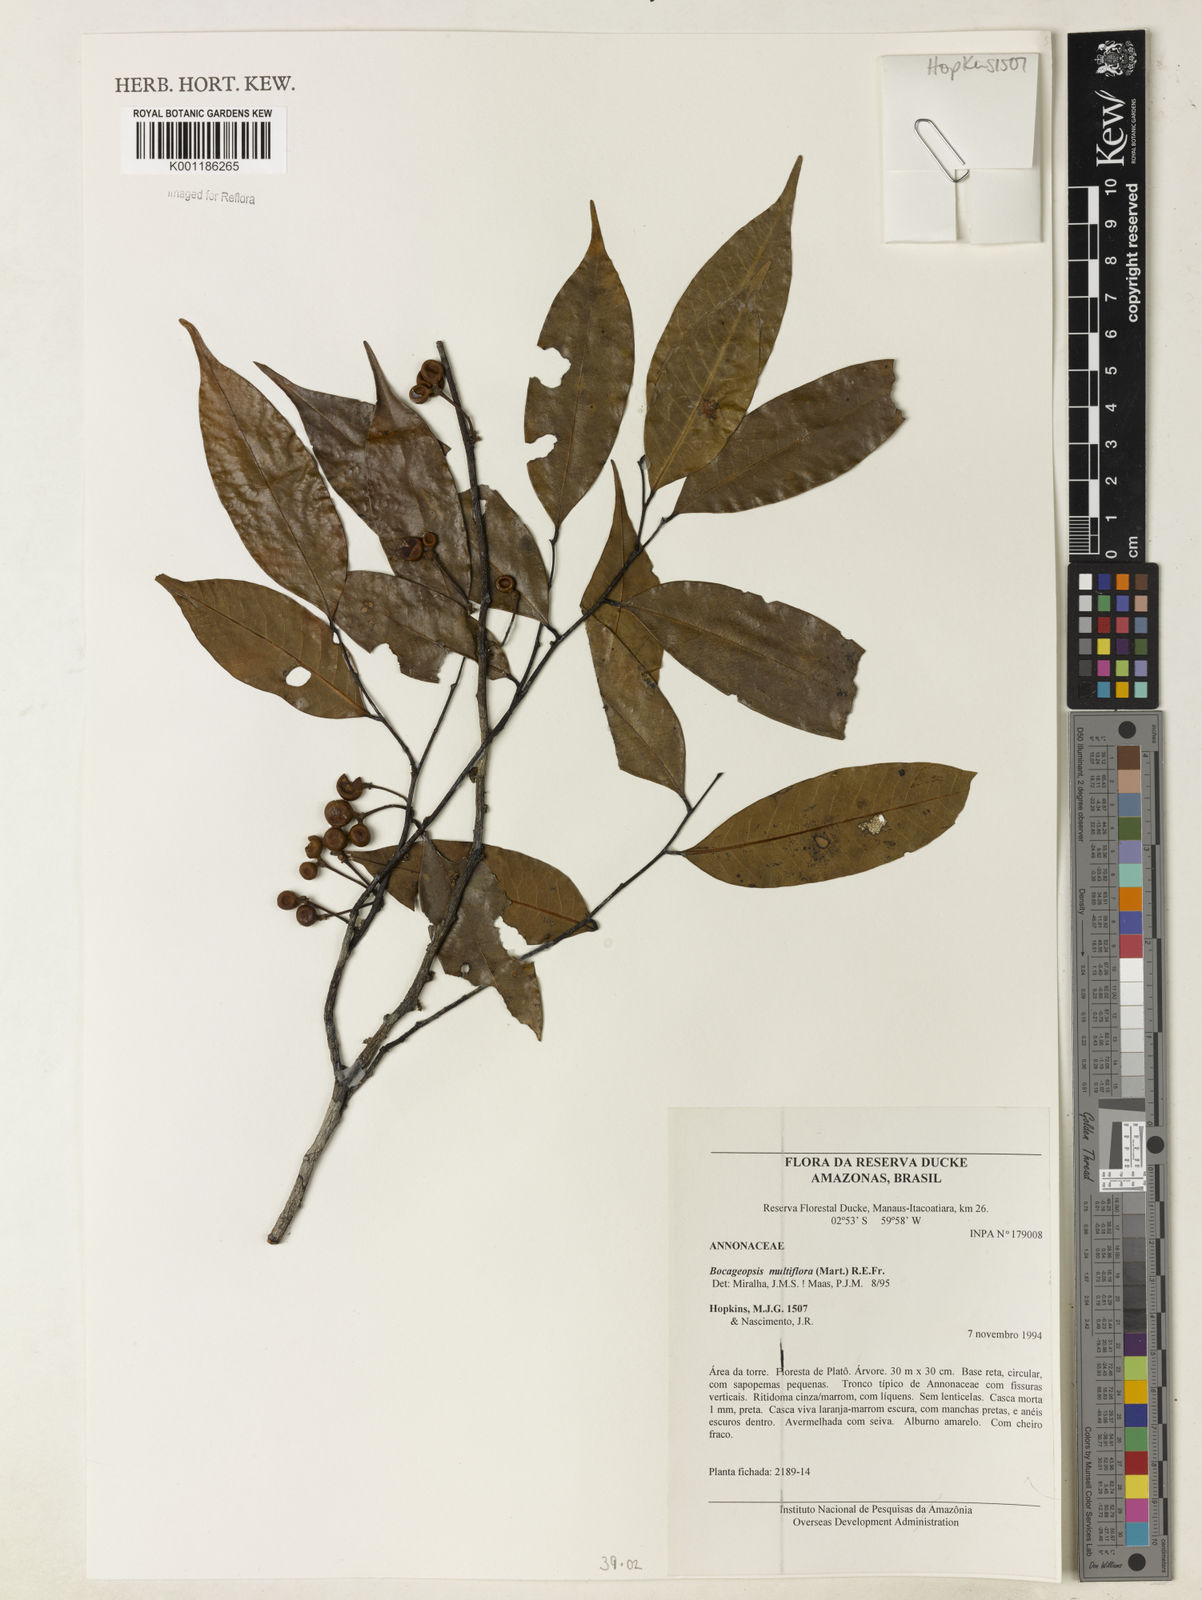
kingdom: Plantae
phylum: Tracheophyta
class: Magnoliopsida
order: Magnoliales
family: Annonaceae
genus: Bocageopsis
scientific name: Bocageopsis multiflora
